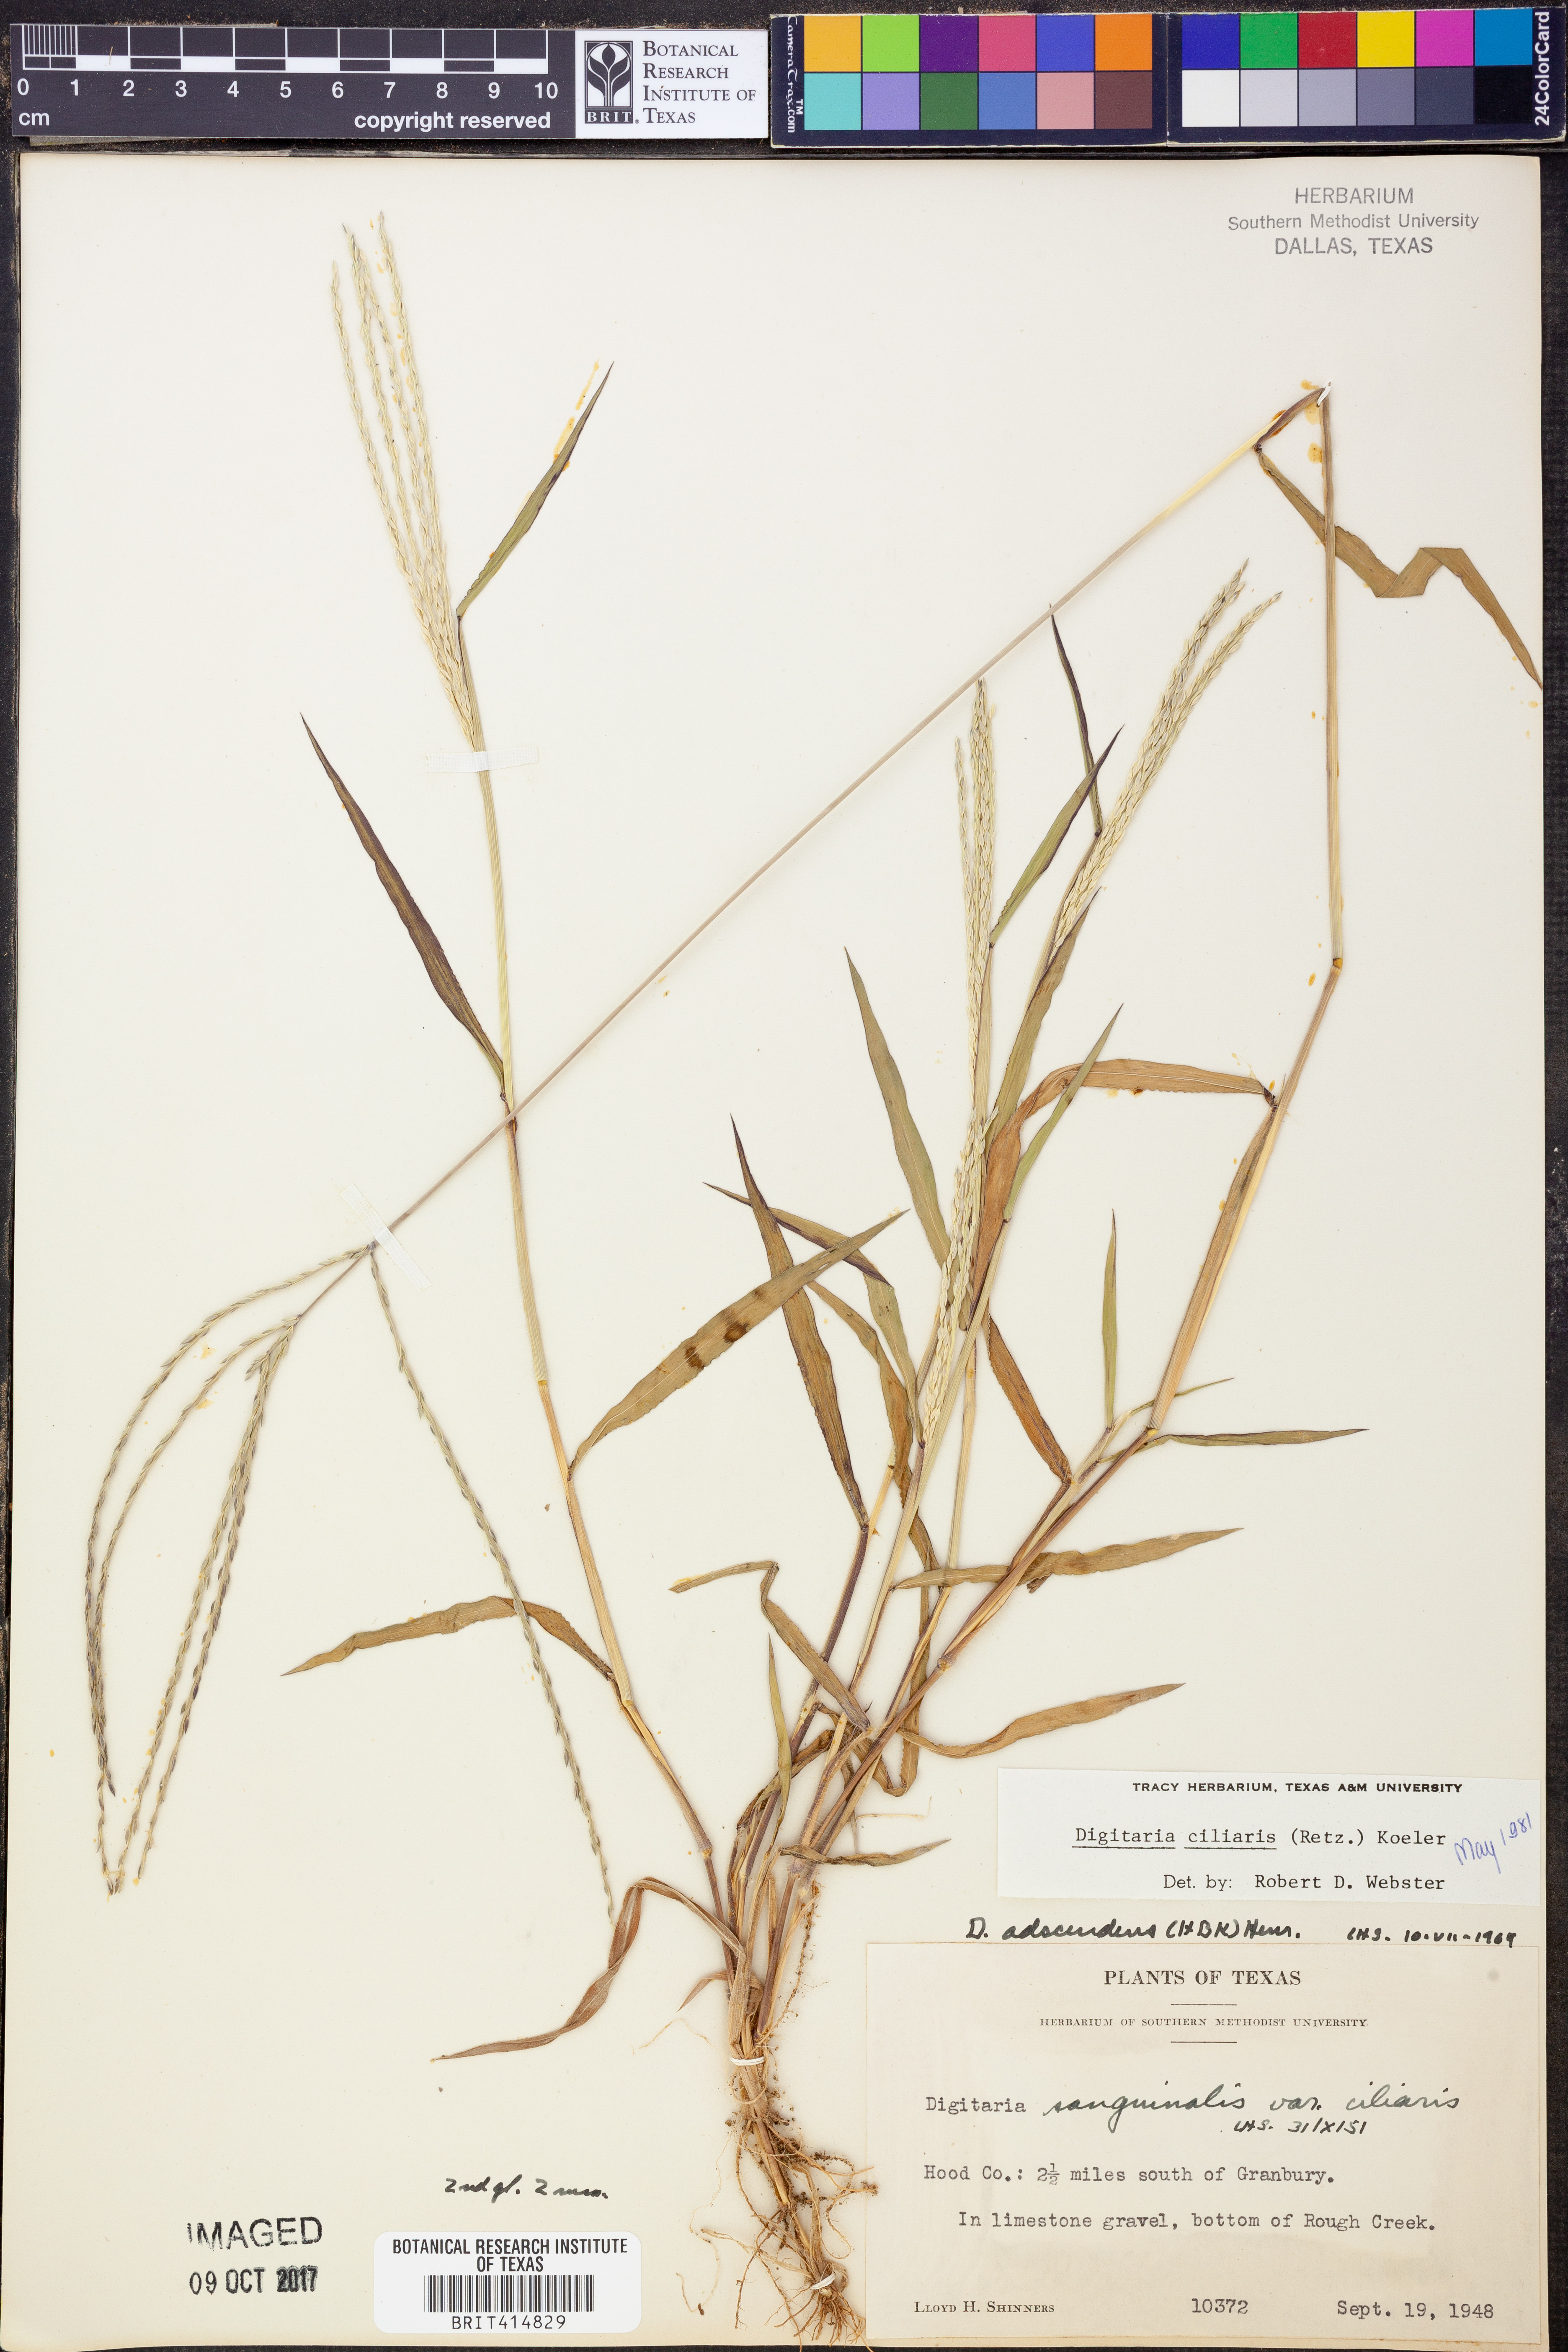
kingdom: Plantae
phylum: Tracheophyta
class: Liliopsida
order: Poales
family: Poaceae
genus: Digitaria
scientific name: Digitaria ciliaris
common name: Tropical finger-grass
